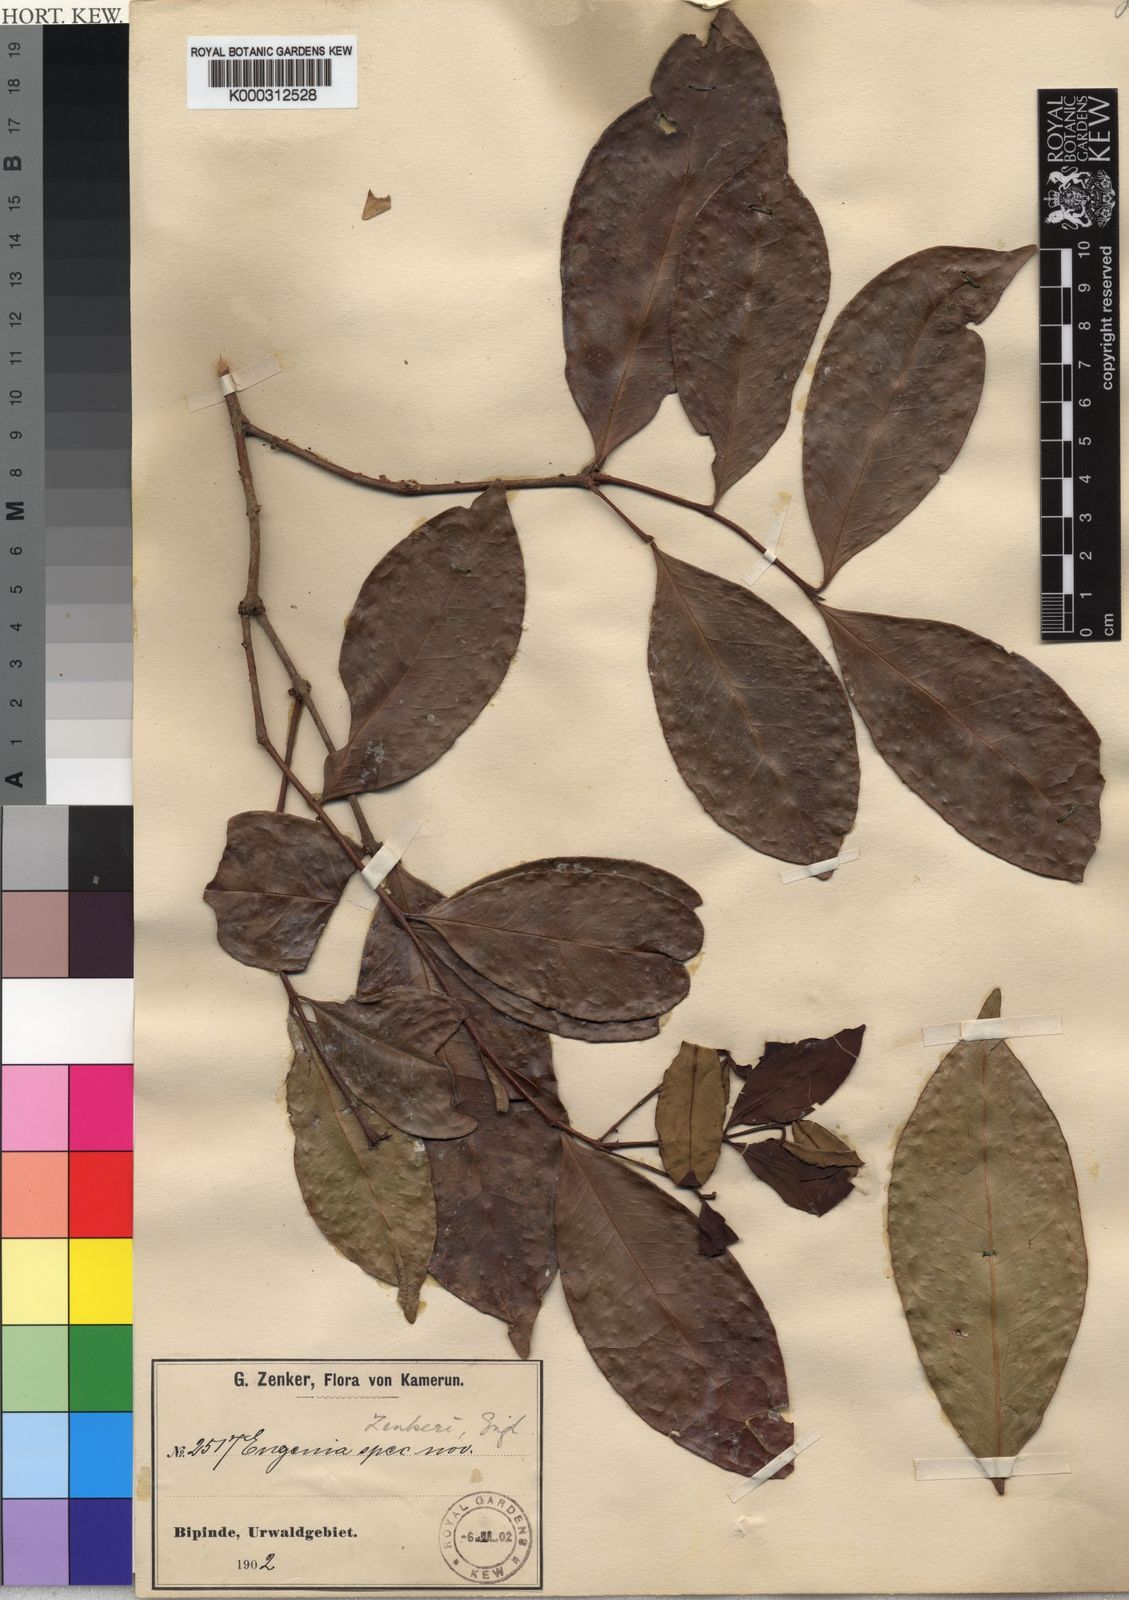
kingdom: Plantae
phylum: Tracheophyta
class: Magnoliopsida
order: Myrtales
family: Myrtaceae
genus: Eugenia
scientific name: Eugenia zenkeri
